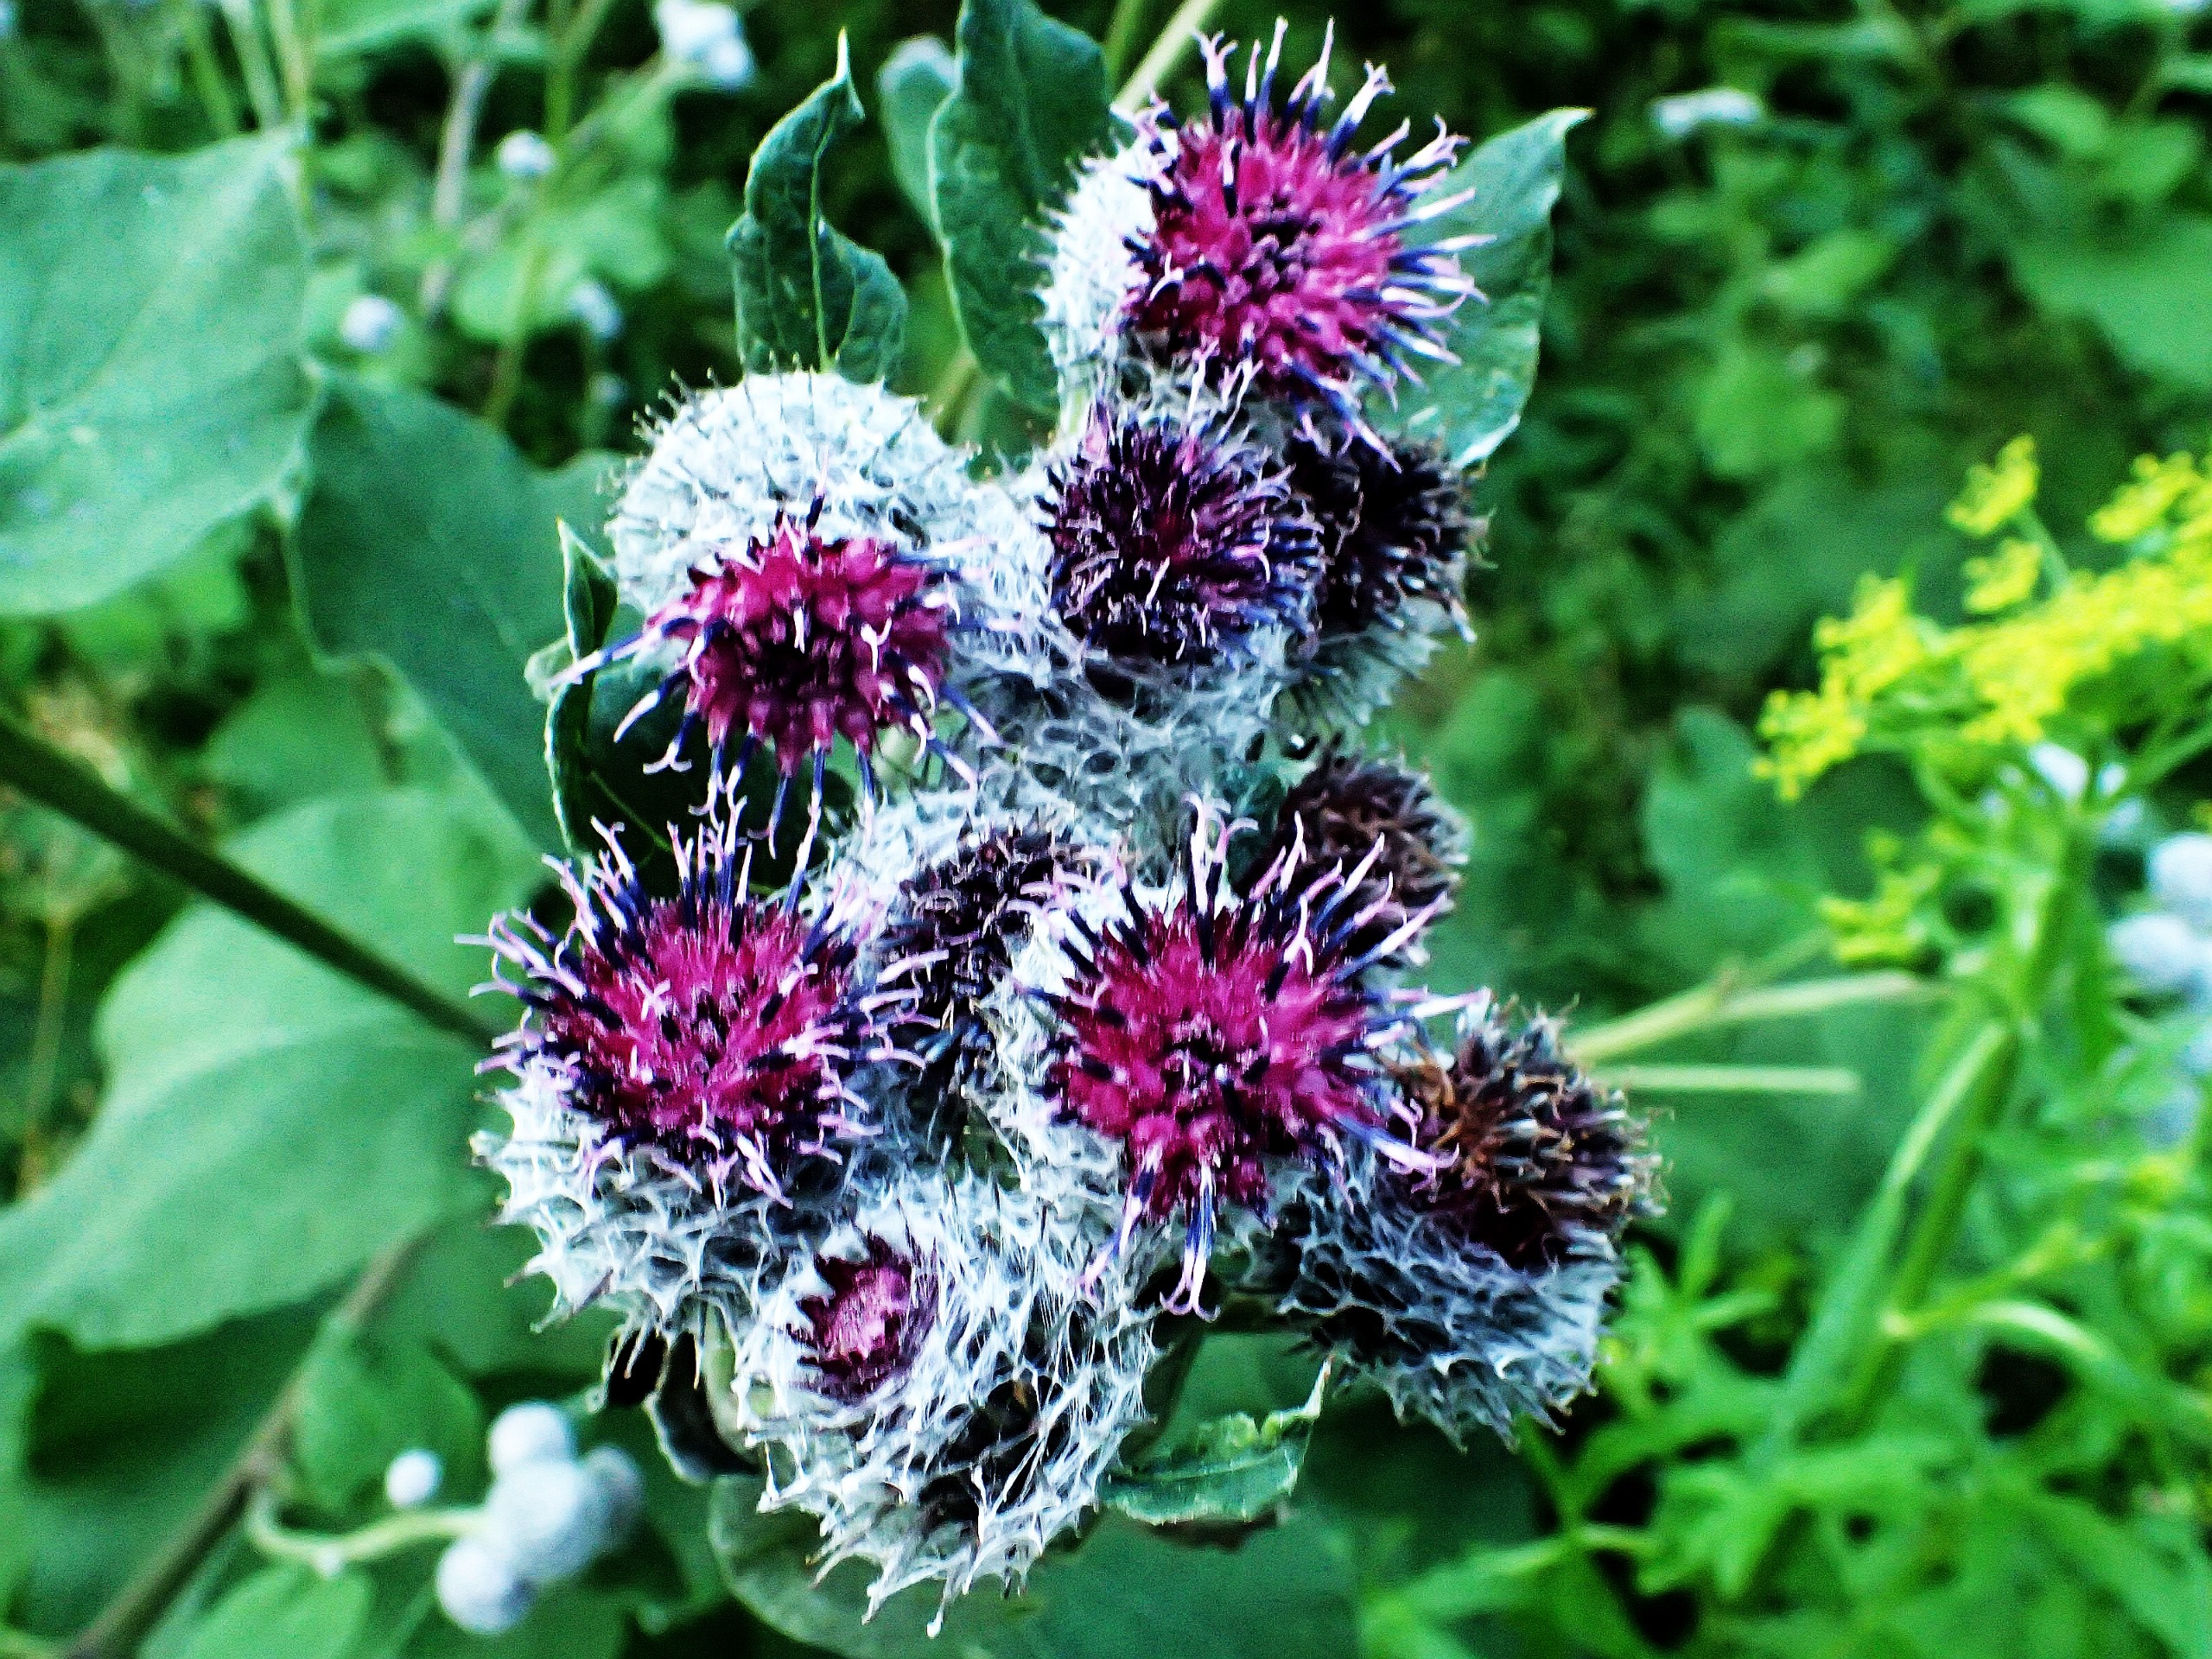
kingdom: Plantae
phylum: Tracheophyta
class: Magnoliopsida
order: Asterales
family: Asteraceae
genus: Arctium
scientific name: Arctium tomentosum
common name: Filtet burre
